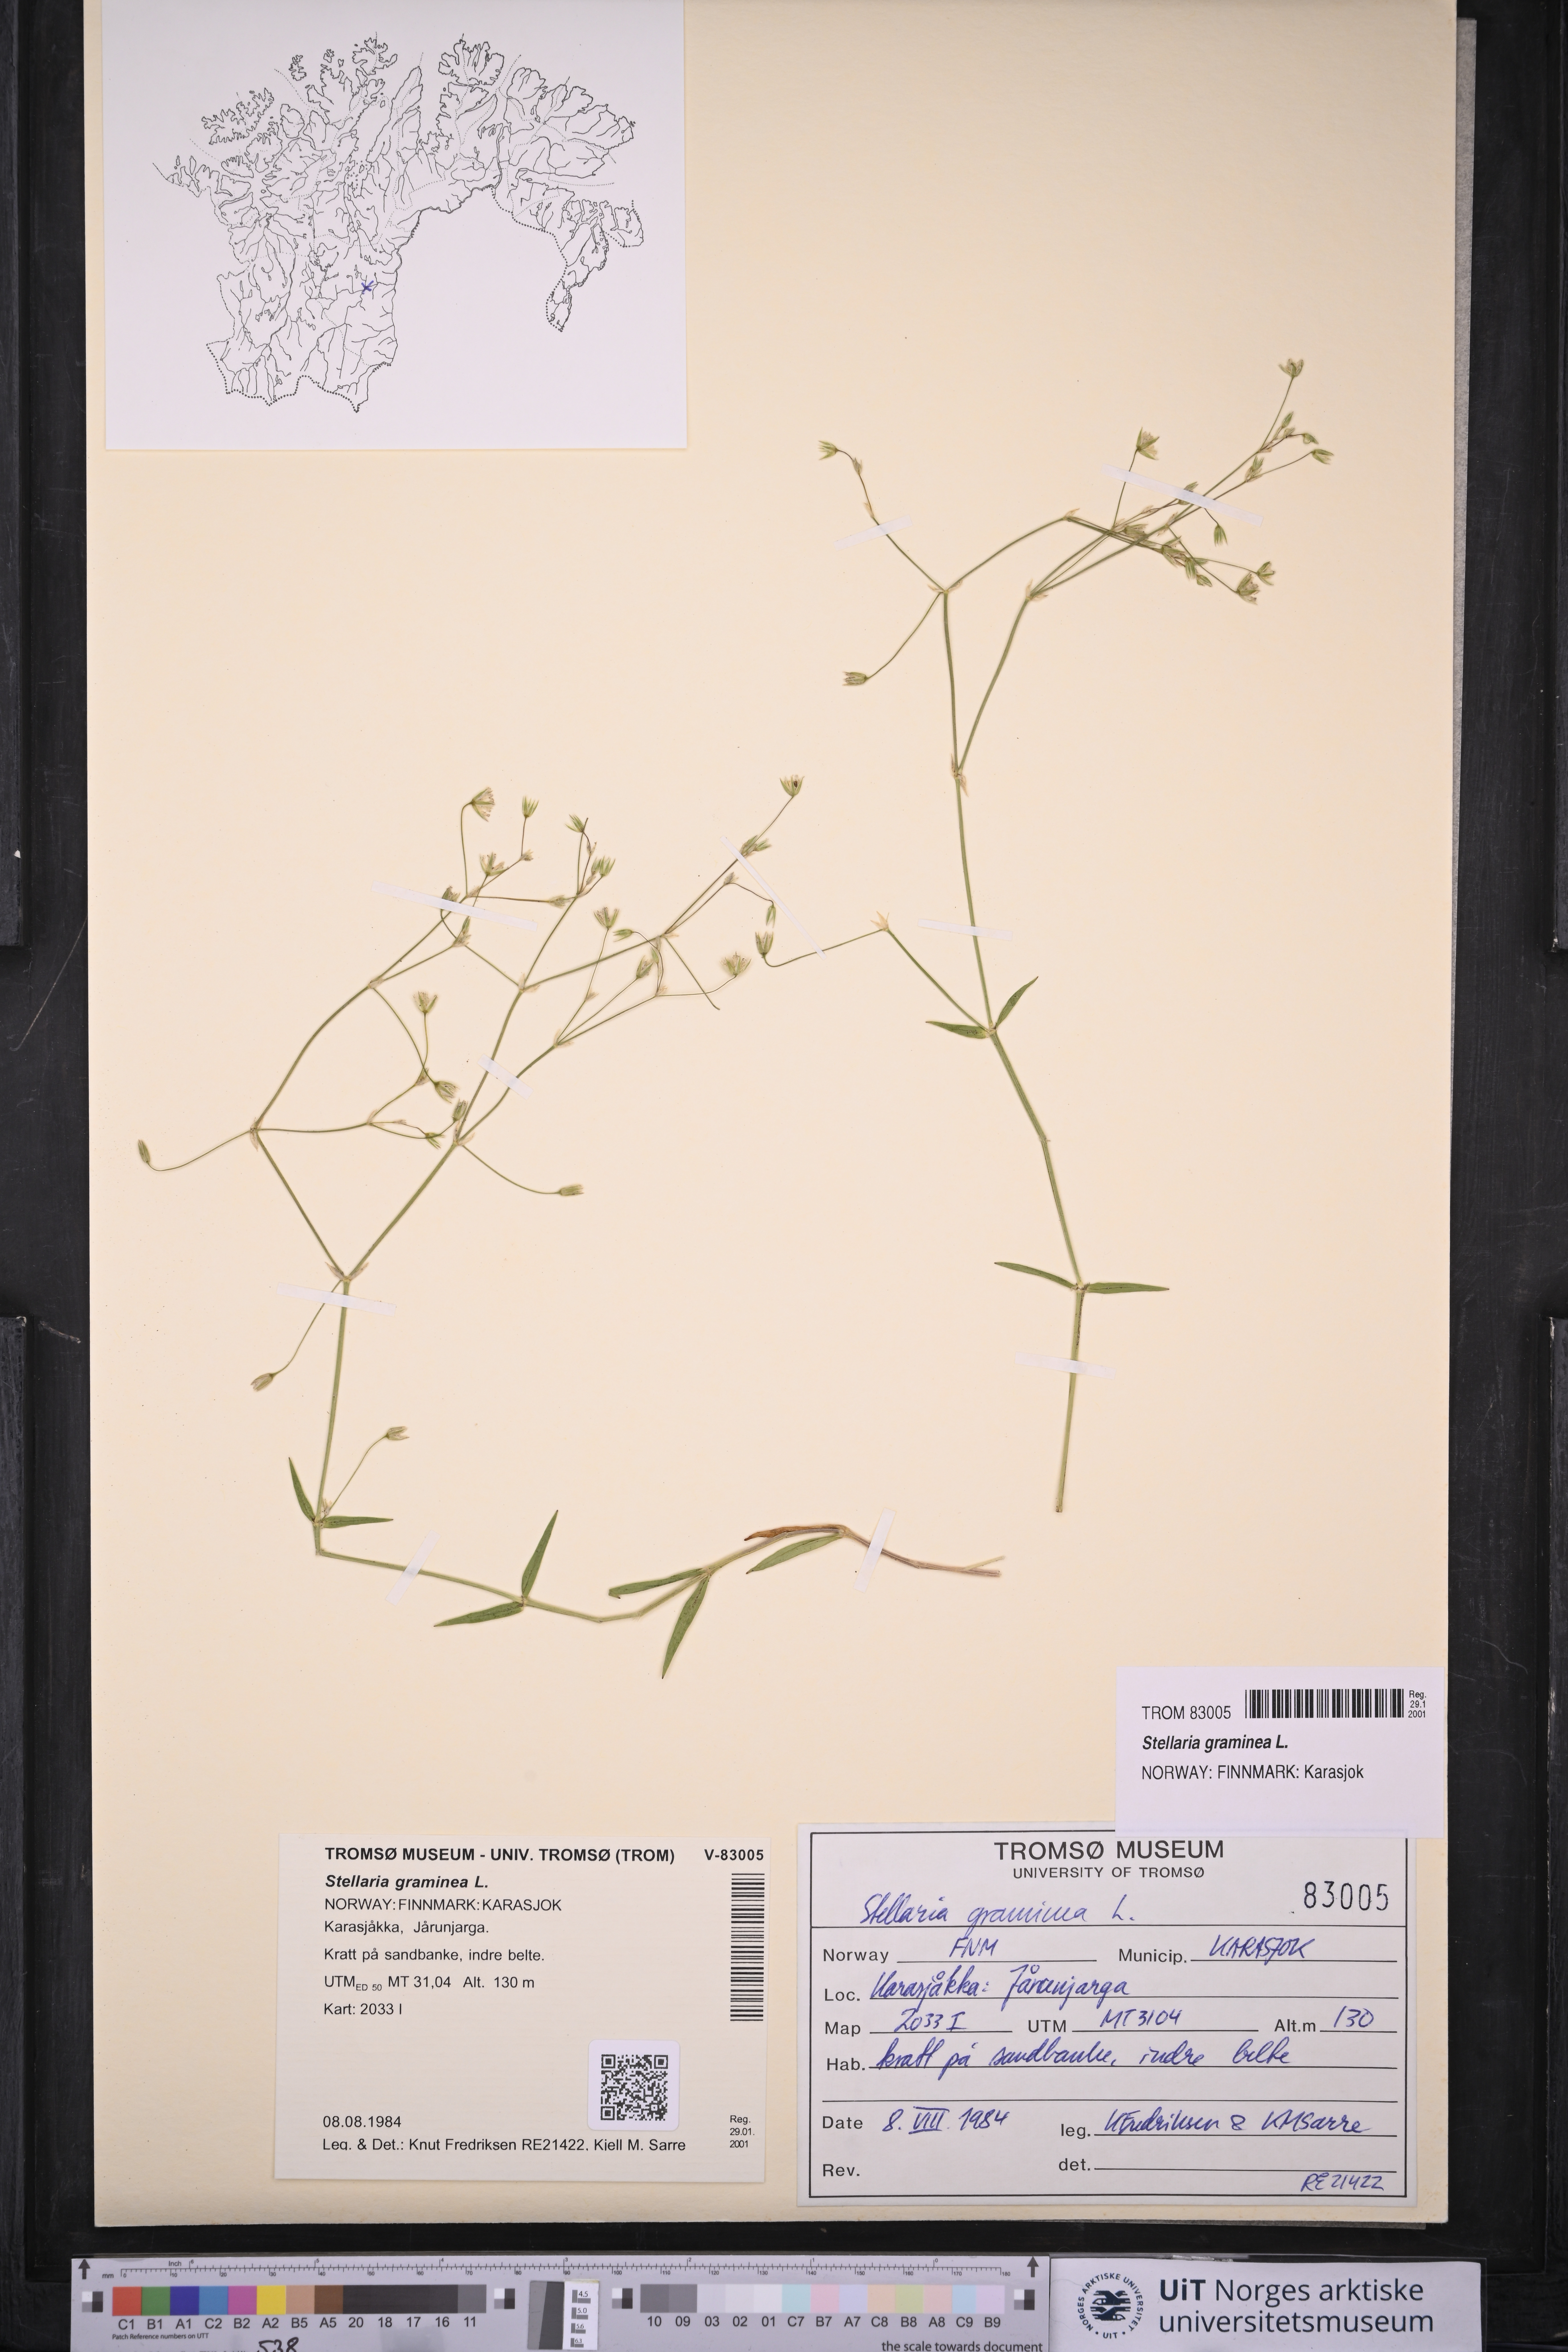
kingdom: Plantae
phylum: Tracheophyta
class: Magnoliopsida
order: Caryophyllales
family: Caryophyllaceae
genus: Stellaria
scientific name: Stellaria graminea
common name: Grass-like starwort
